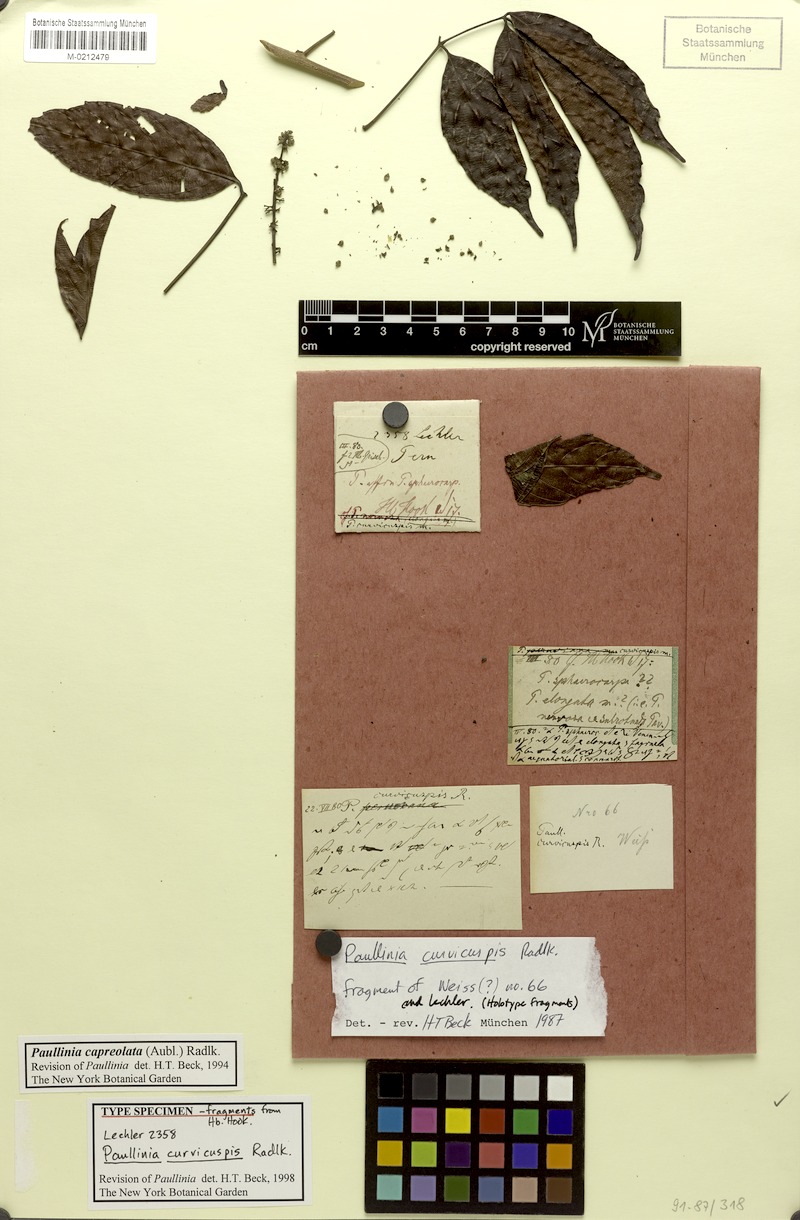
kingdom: Plantae
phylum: Tracheophyta
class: Magnoliopsida
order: Sapindales
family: Sapindaceae
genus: Paullinia
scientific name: Paullinia capreolata
